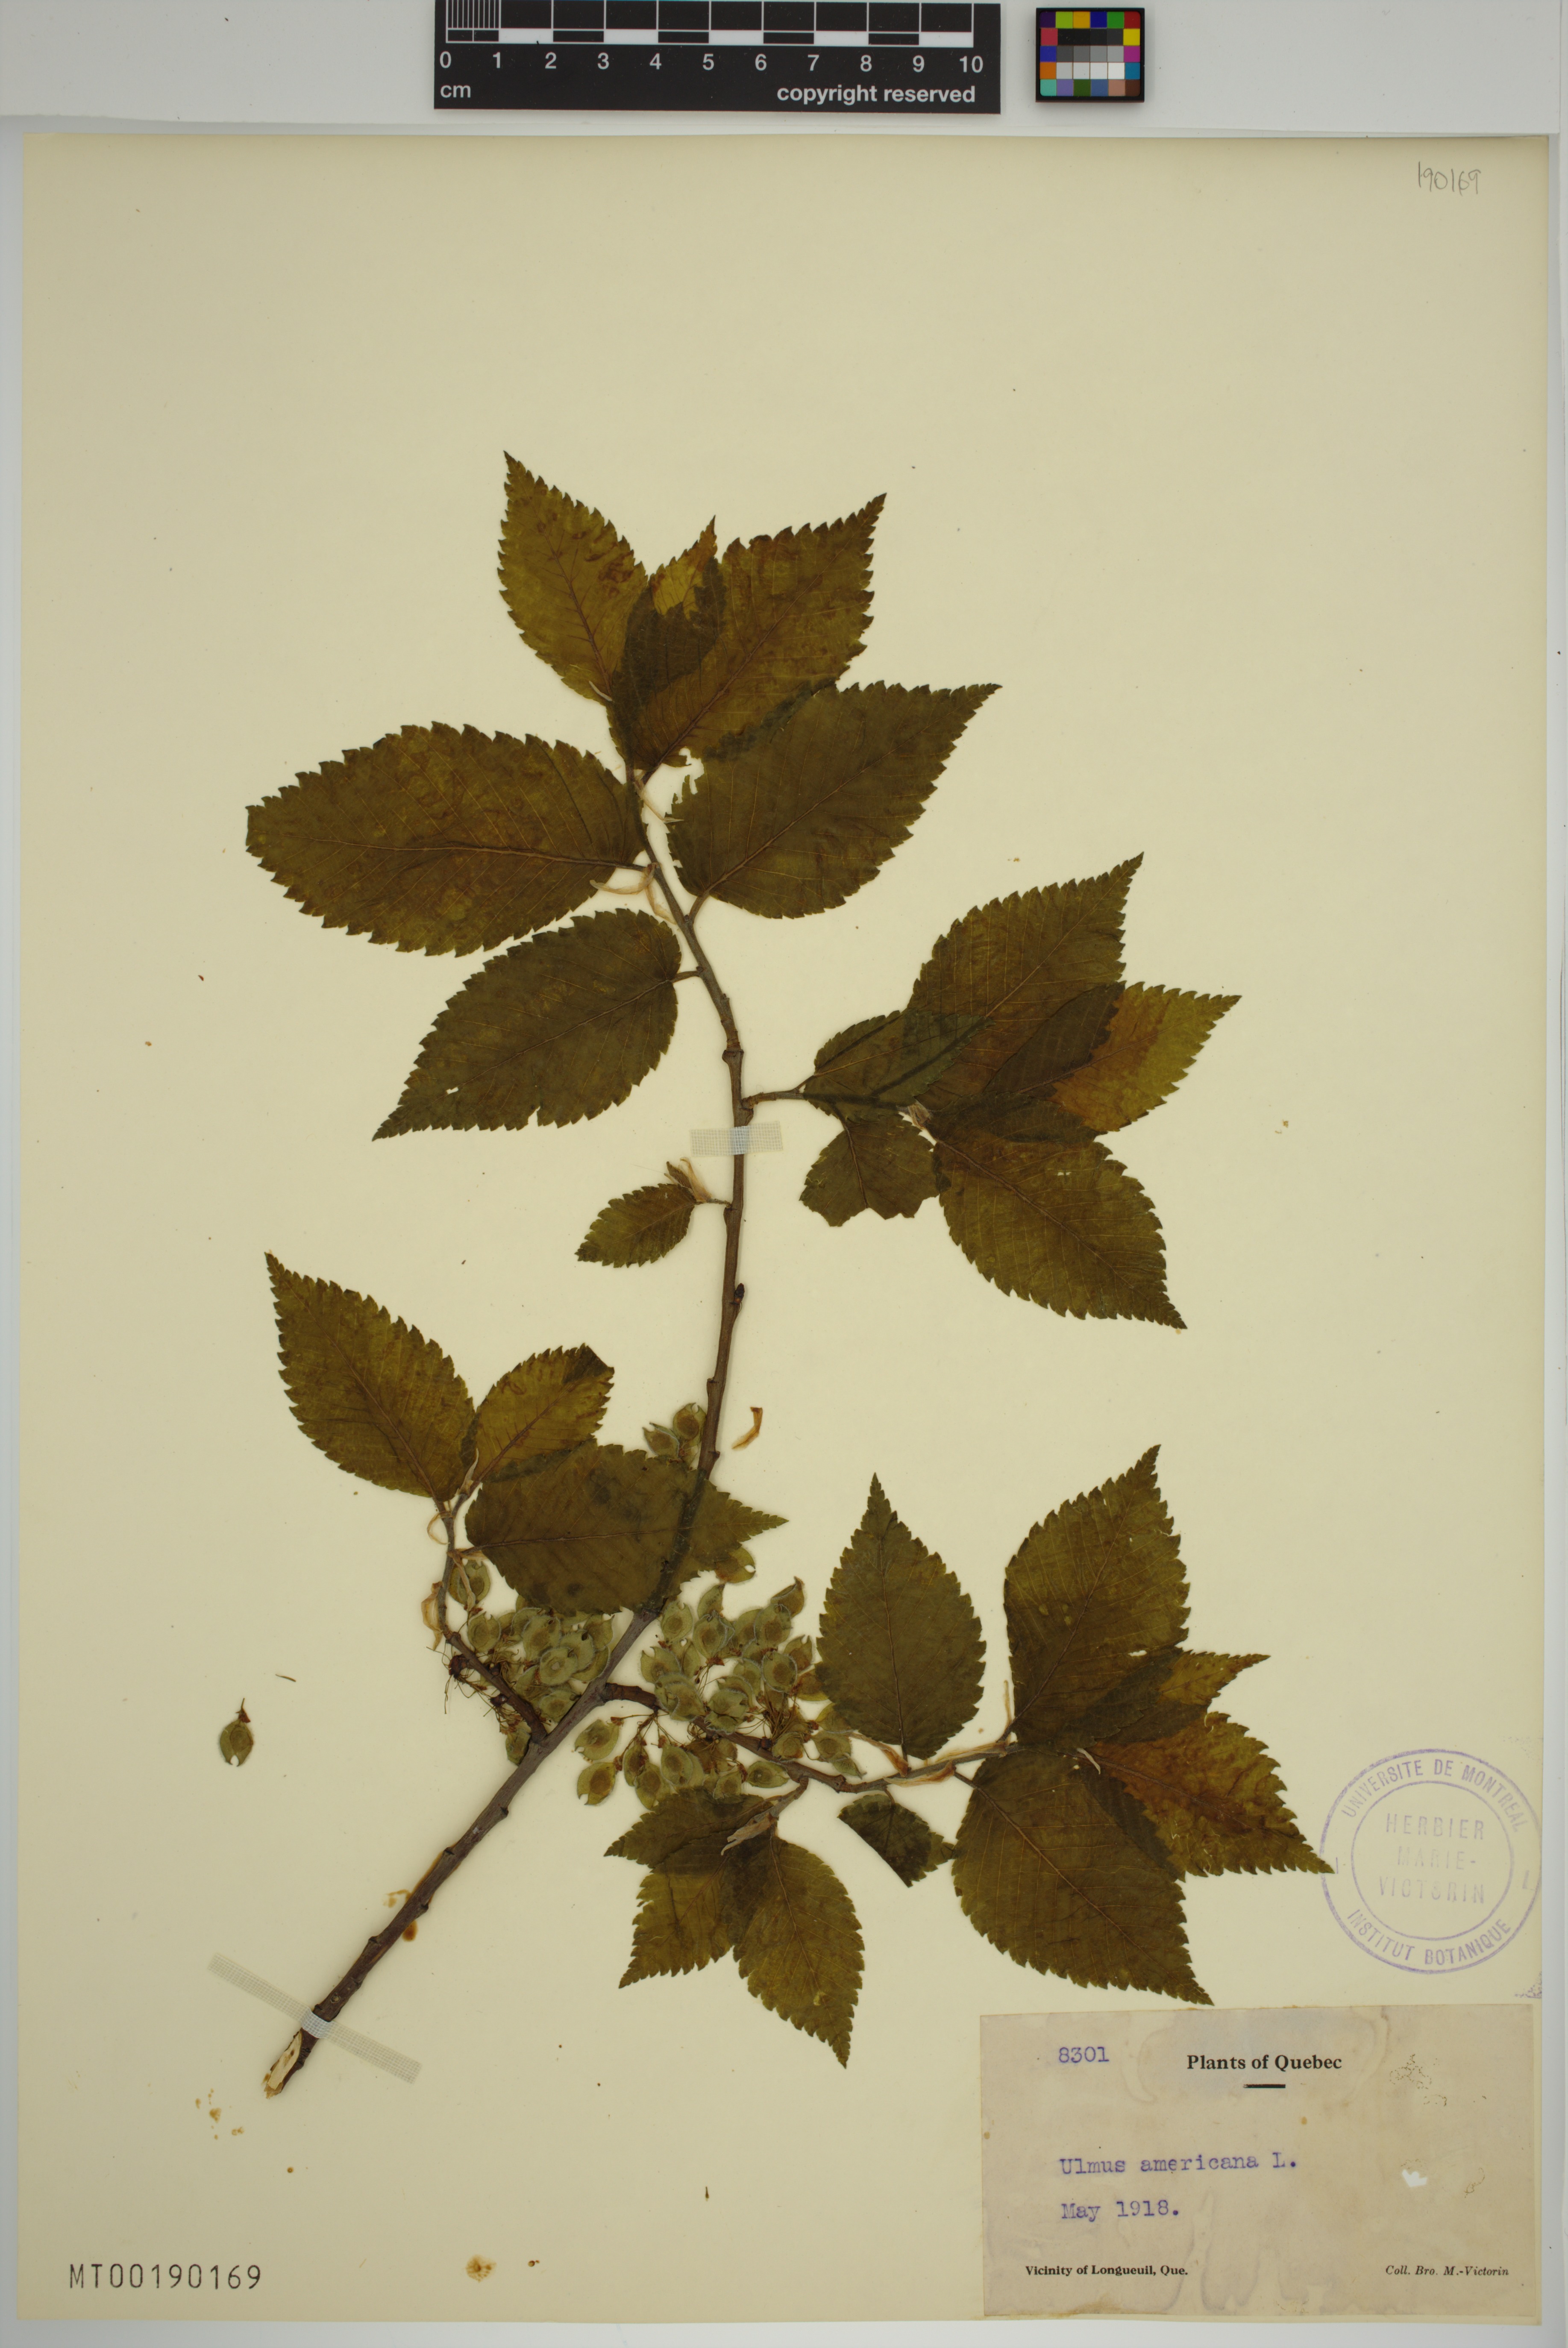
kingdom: Plantae
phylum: Tracheophyta
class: Magnoliopsida
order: Rosales
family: Ulmaceae
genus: Ulmus
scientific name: Ulmus americana
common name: American elm
